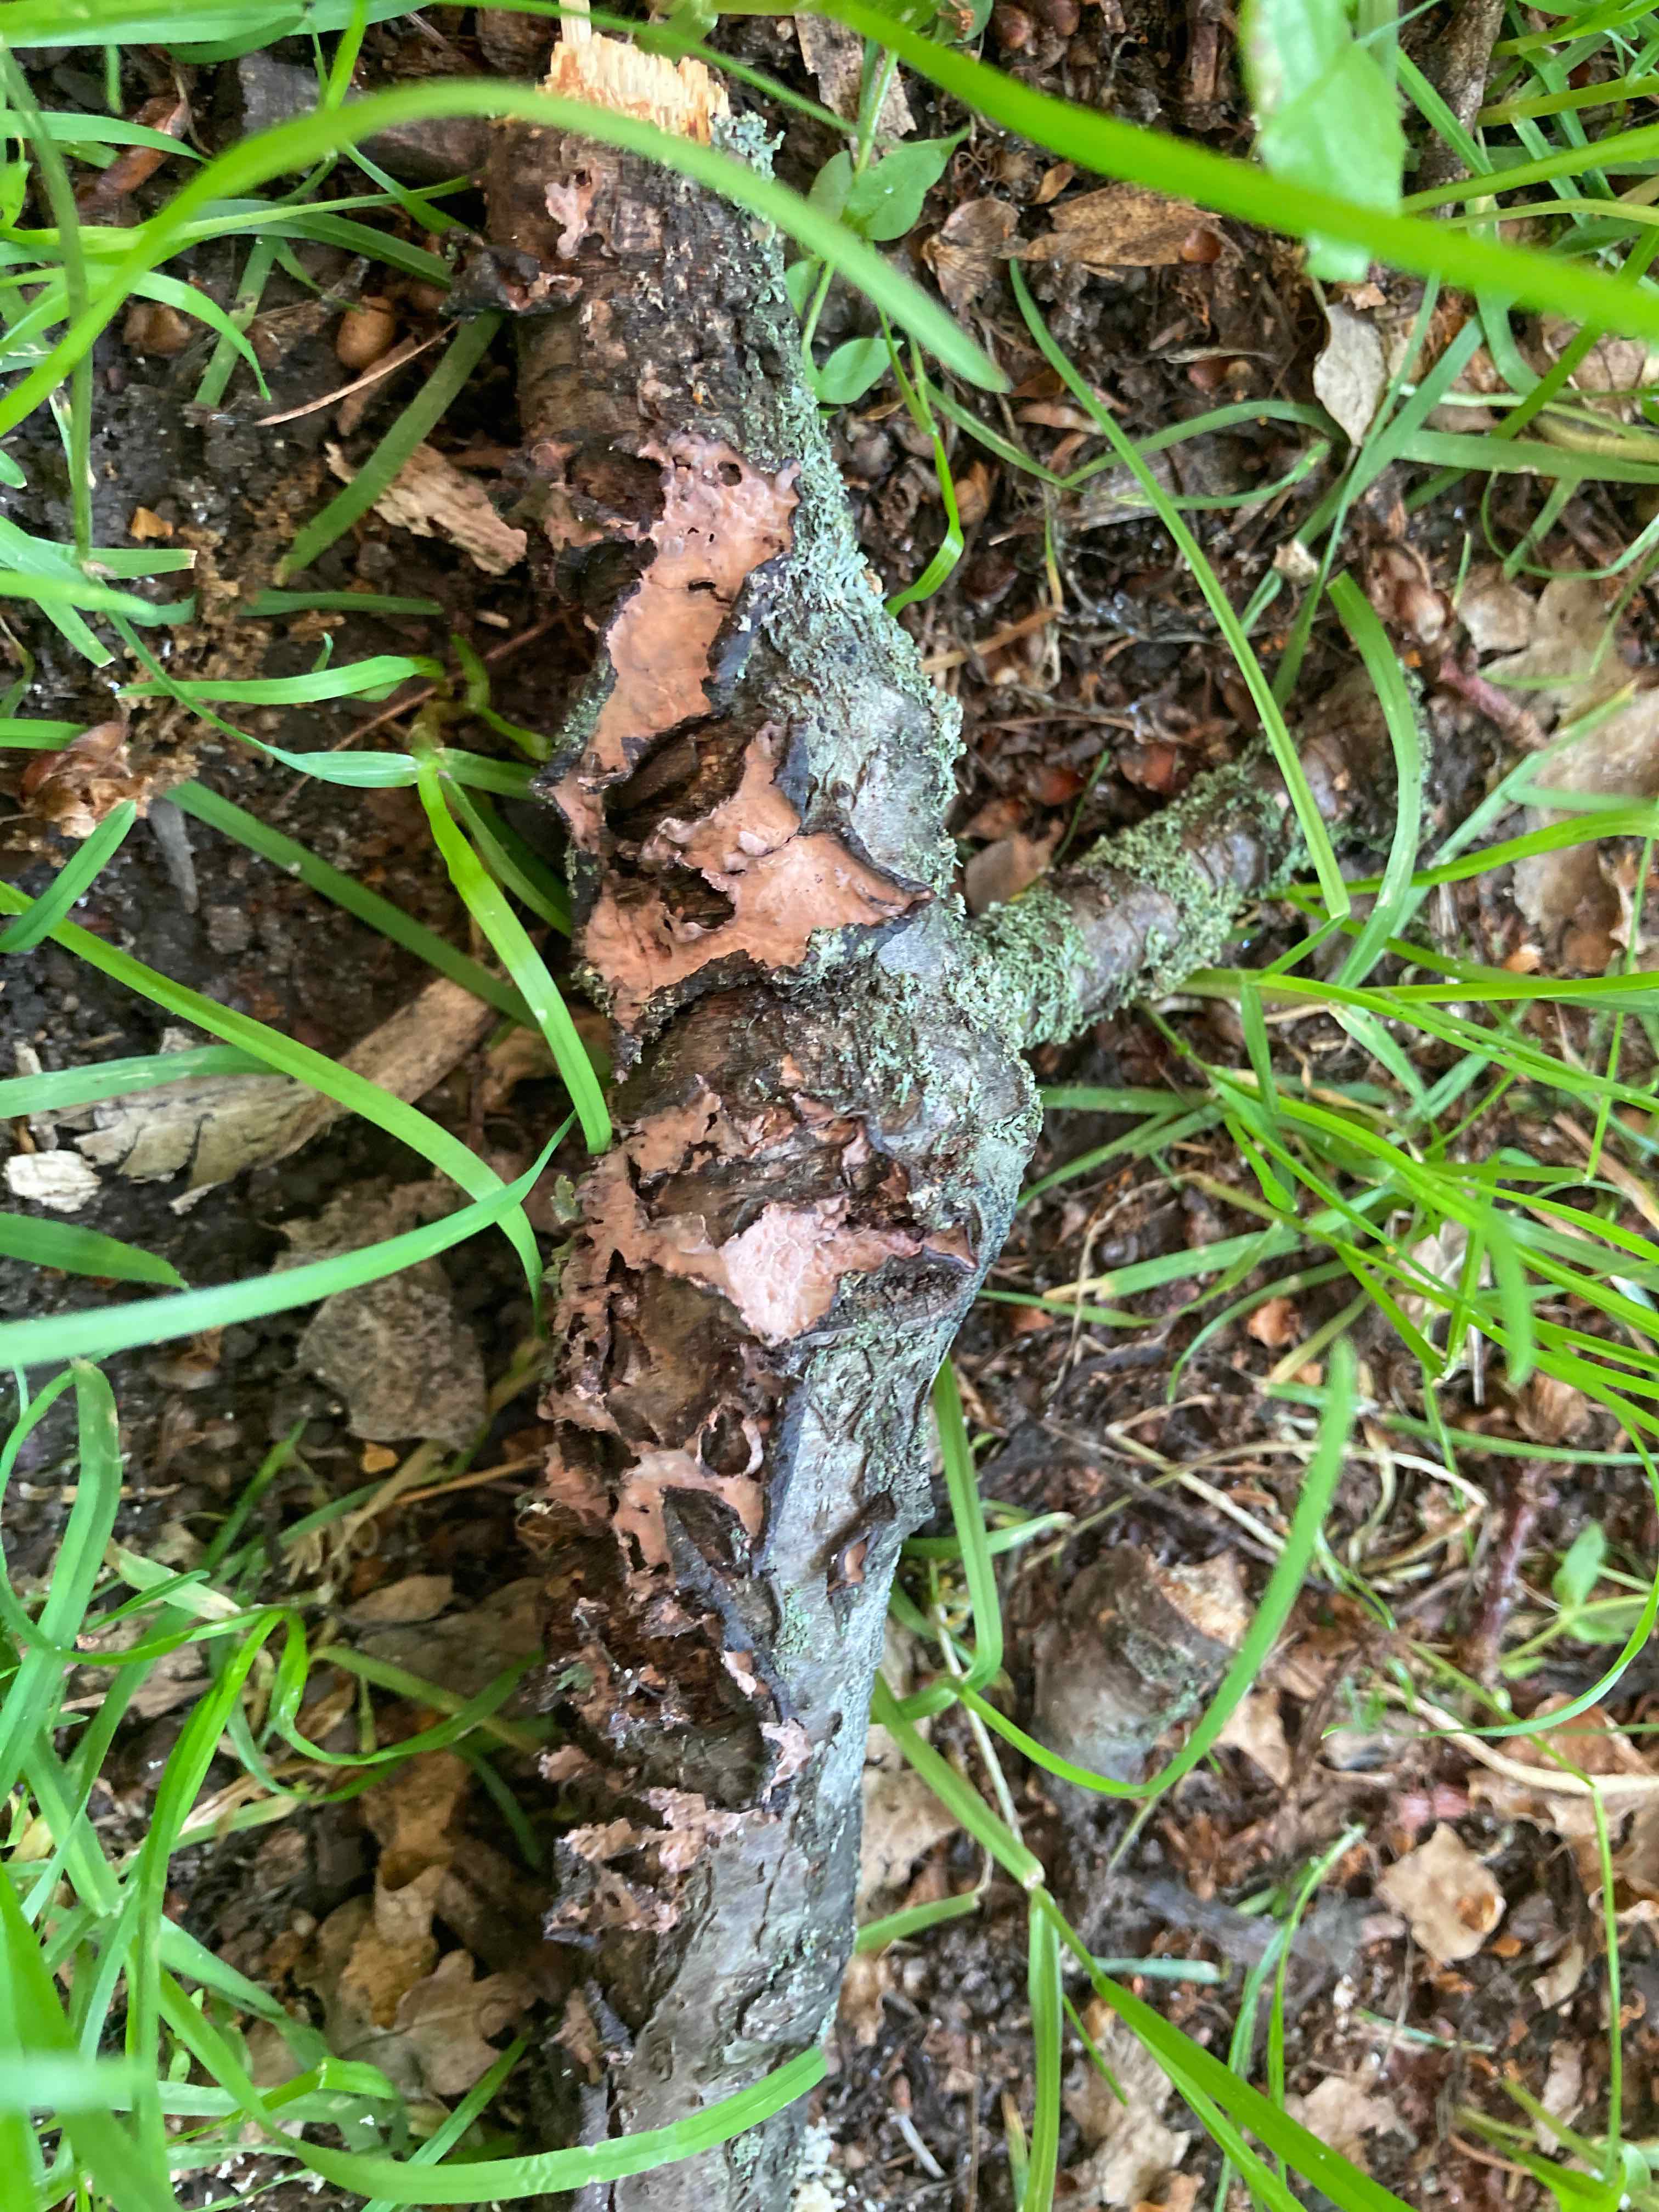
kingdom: Fungi
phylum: Basidiomycota
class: Agaricomycetes
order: Russulales
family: Peniophoraceae
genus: Peniophora
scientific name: Peniophora quercina
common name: ege-voksskind
